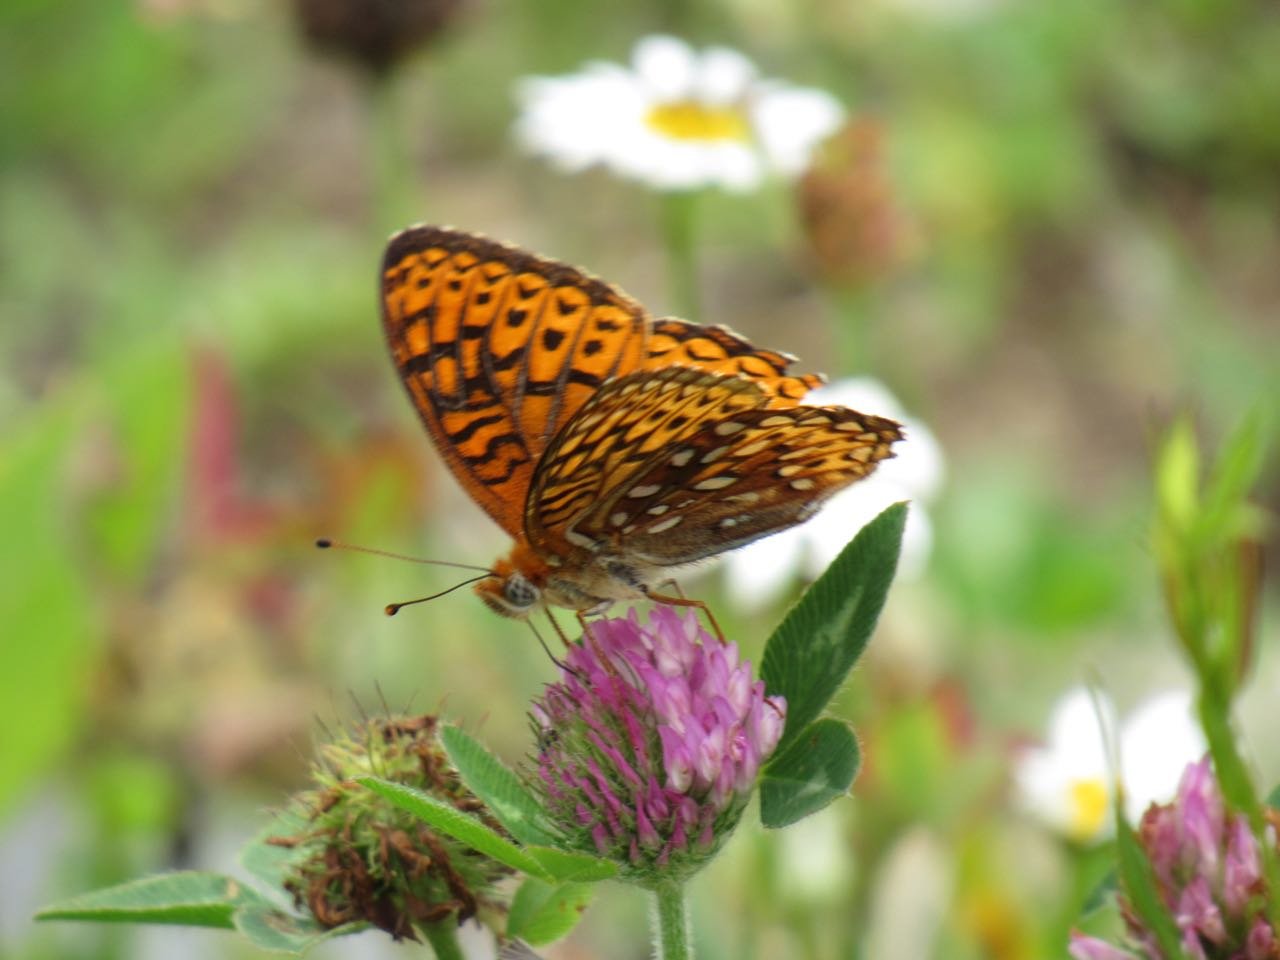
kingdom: Animalia
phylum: Arthropoda
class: Insecta
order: Lepidoptera
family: Nymphalidae
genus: Speyeria
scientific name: Speyeria atlantis
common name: Atlantis Fritillary
